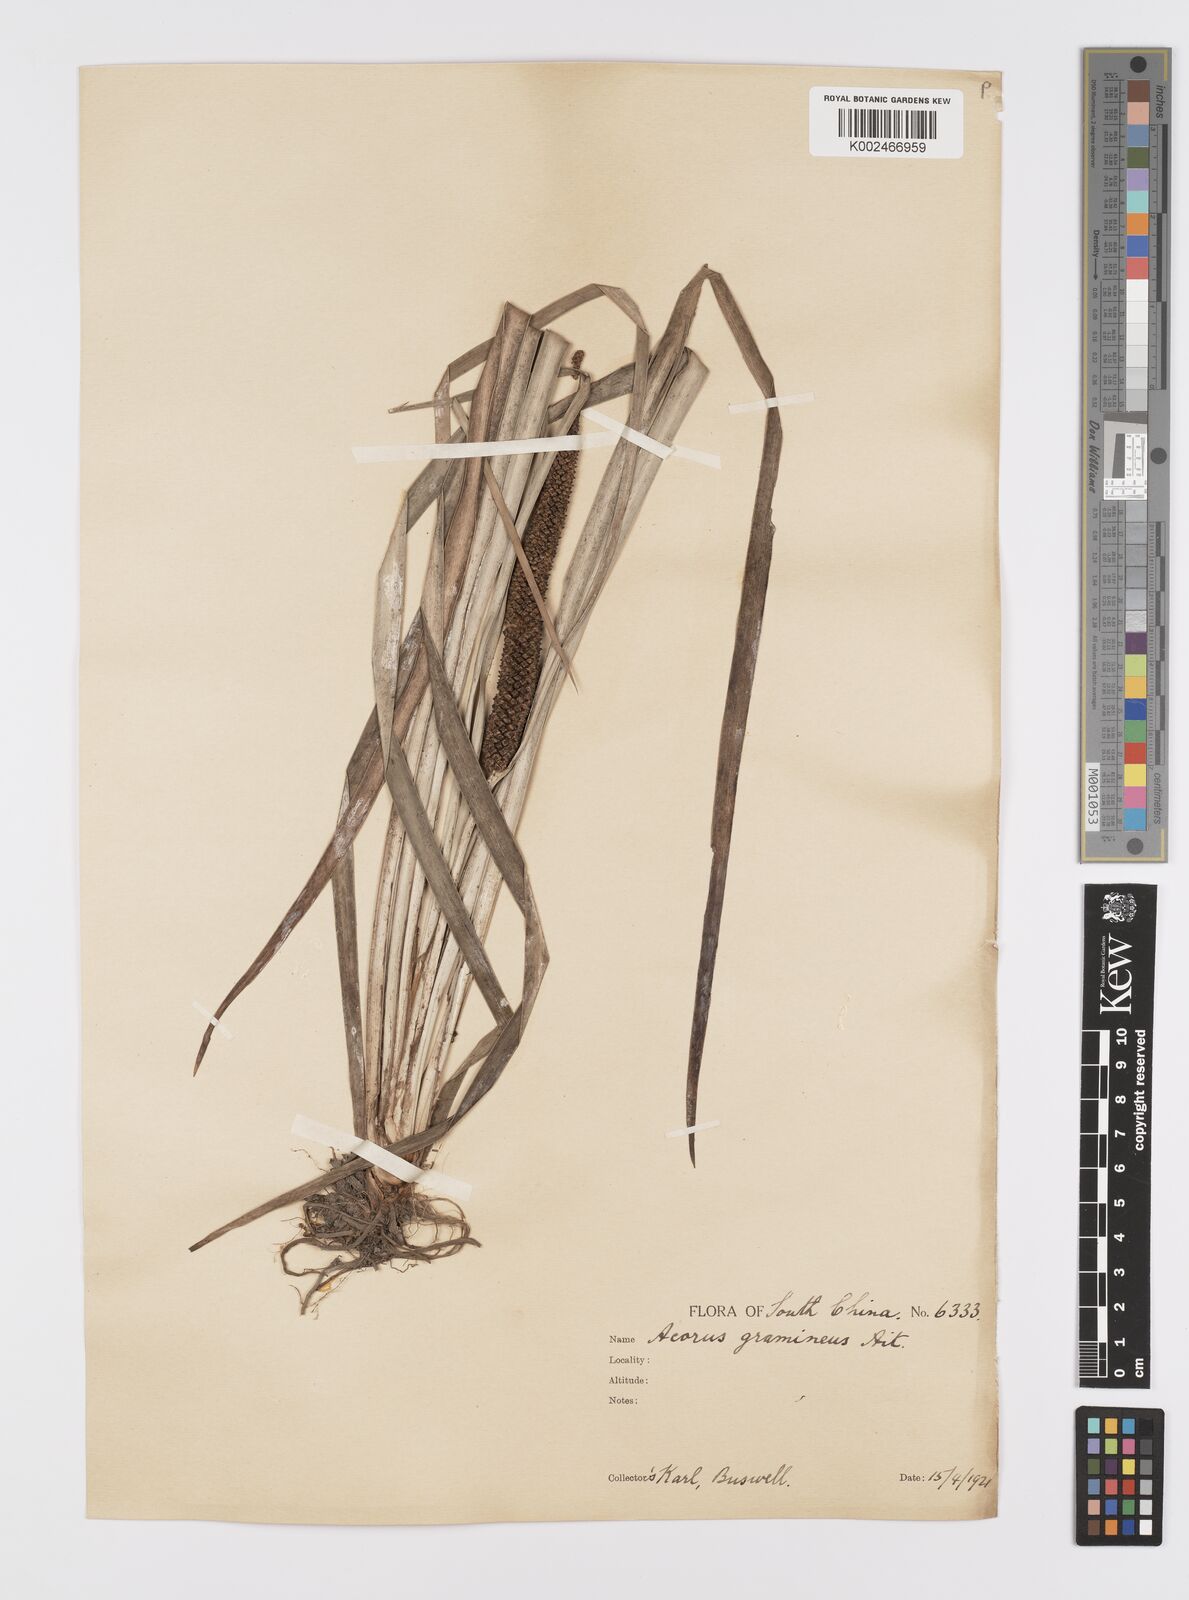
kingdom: Plantae
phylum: Tracheophyta
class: Liliopsida
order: Acorales
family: Acoraceae
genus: Acorus
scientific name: Acorus gramineus
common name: Slender sweet-flag
